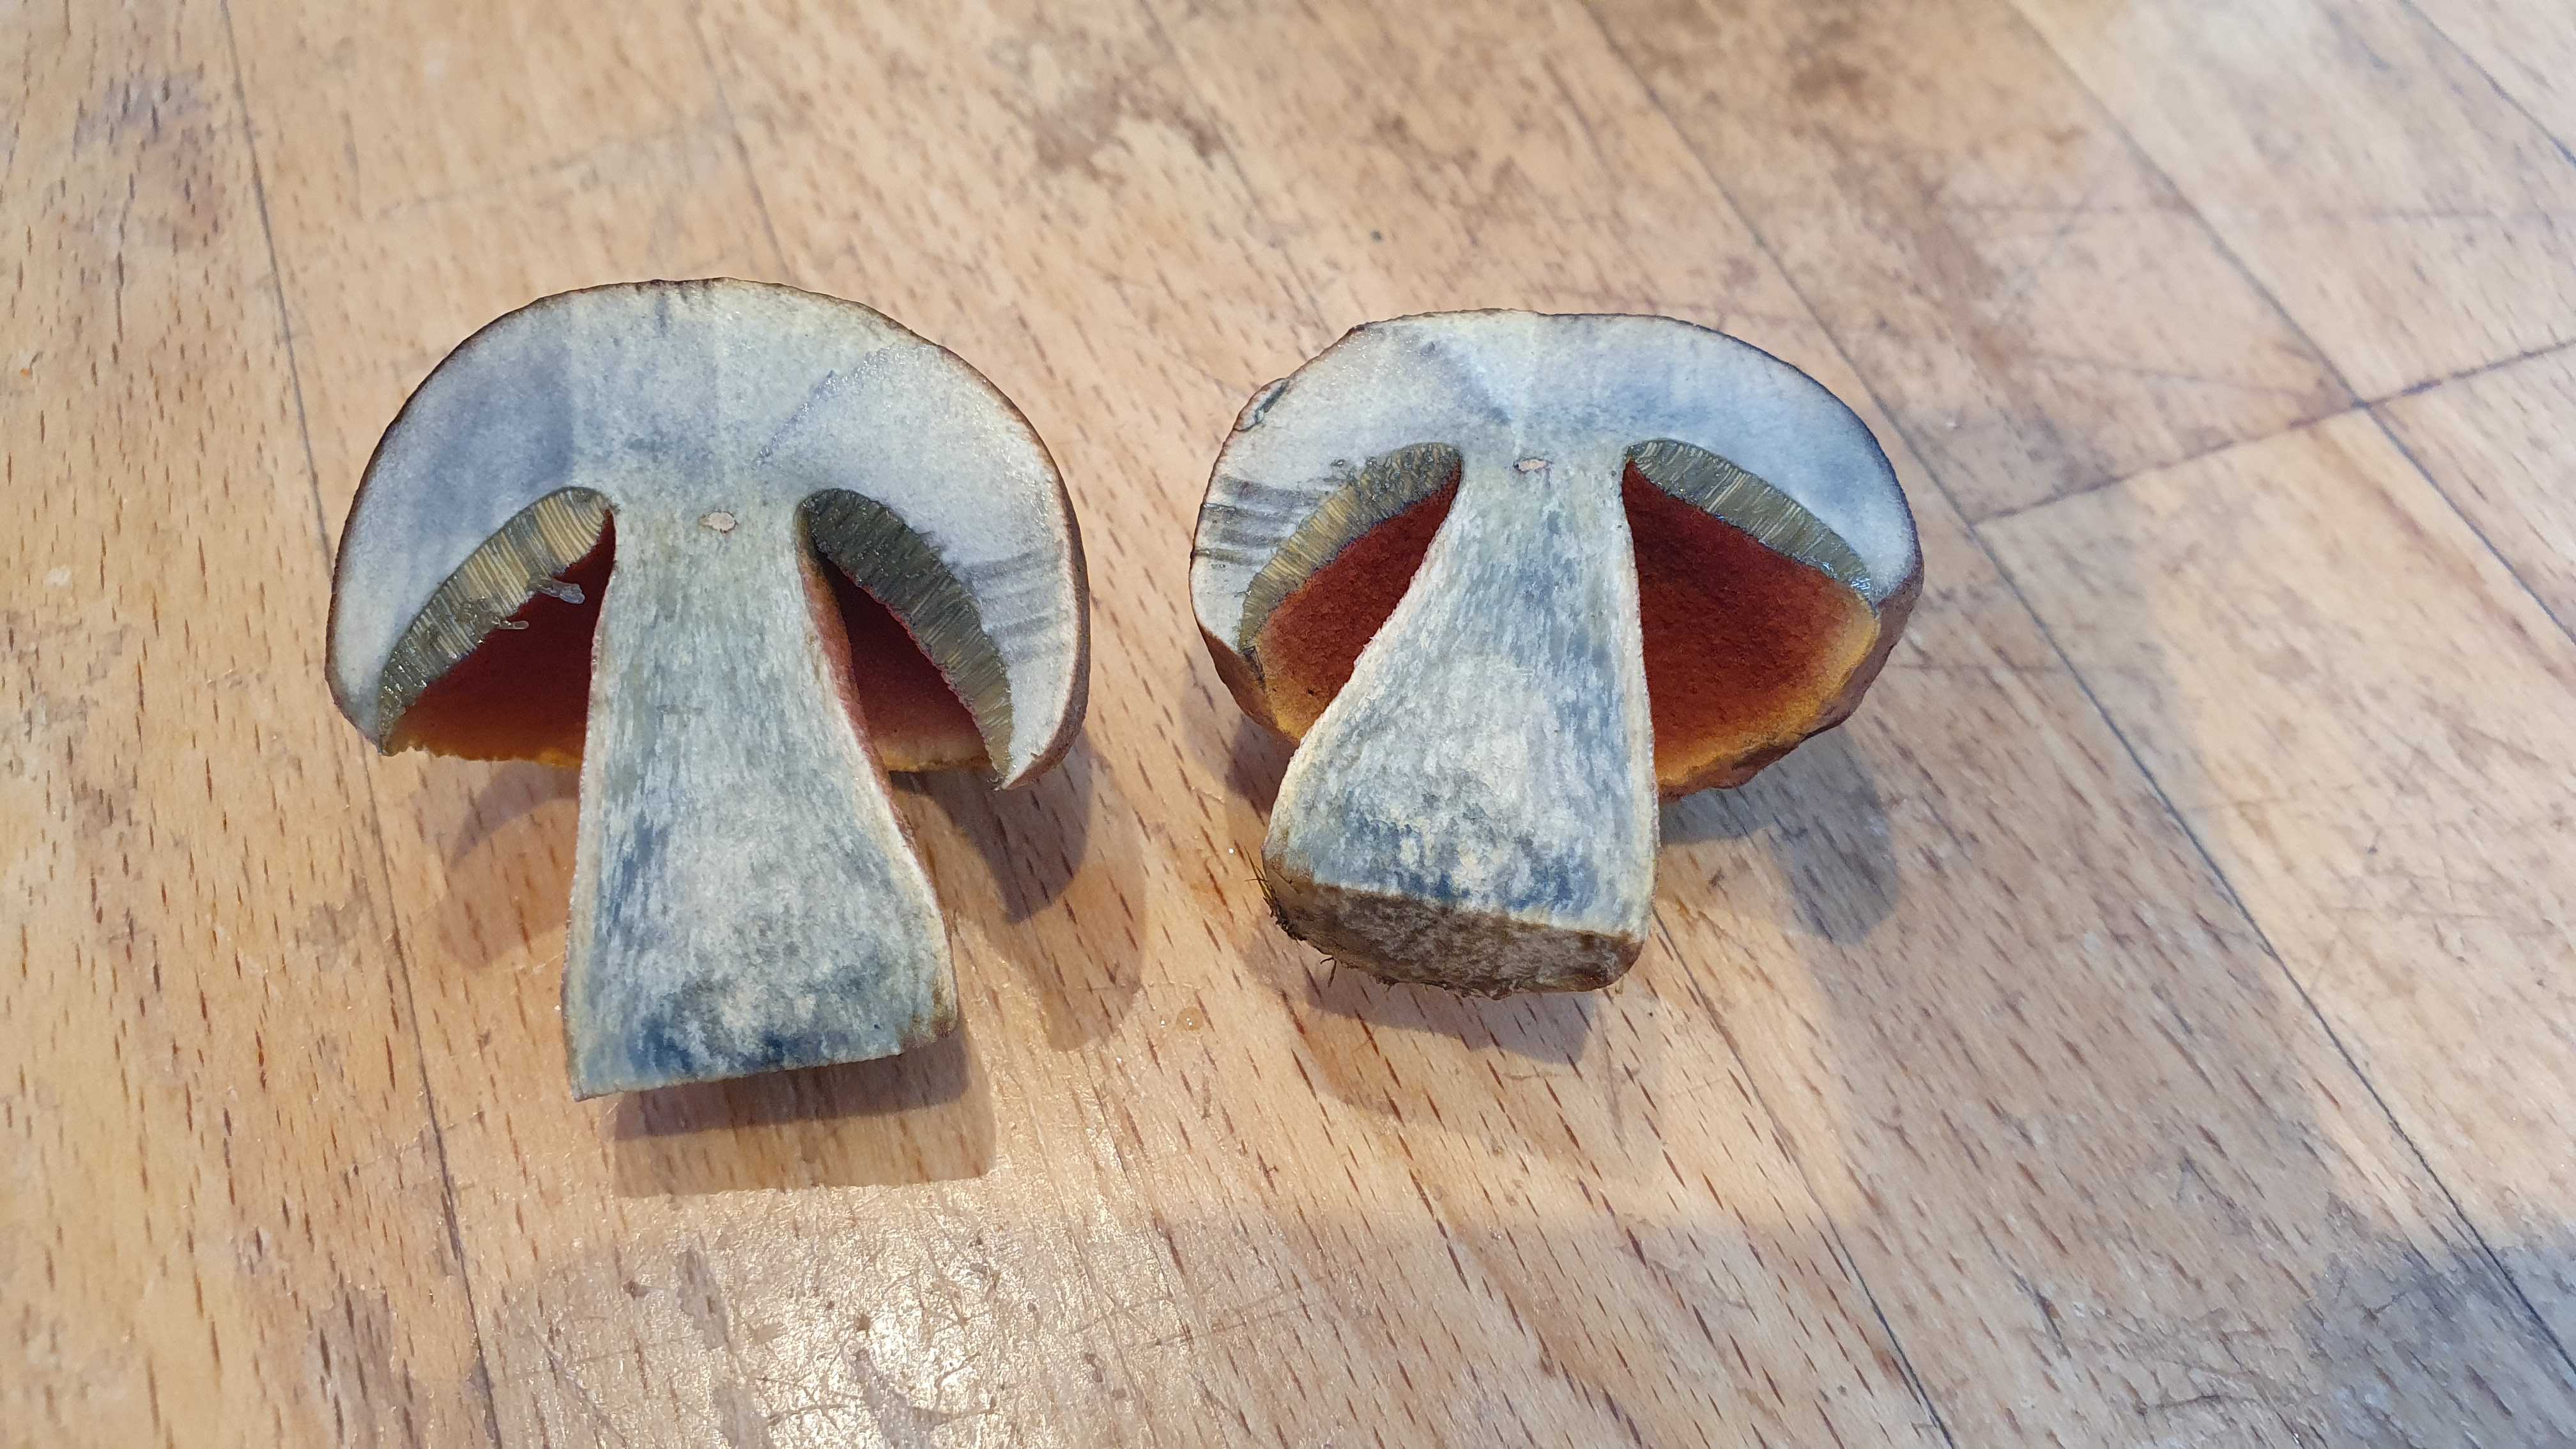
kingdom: Fungi
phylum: Basidiomycota
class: Agaricomycetes
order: Boletales
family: Boletaceae
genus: Neoboletus
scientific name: Neoboletus erythropus
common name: punktstokket indigorørhat
